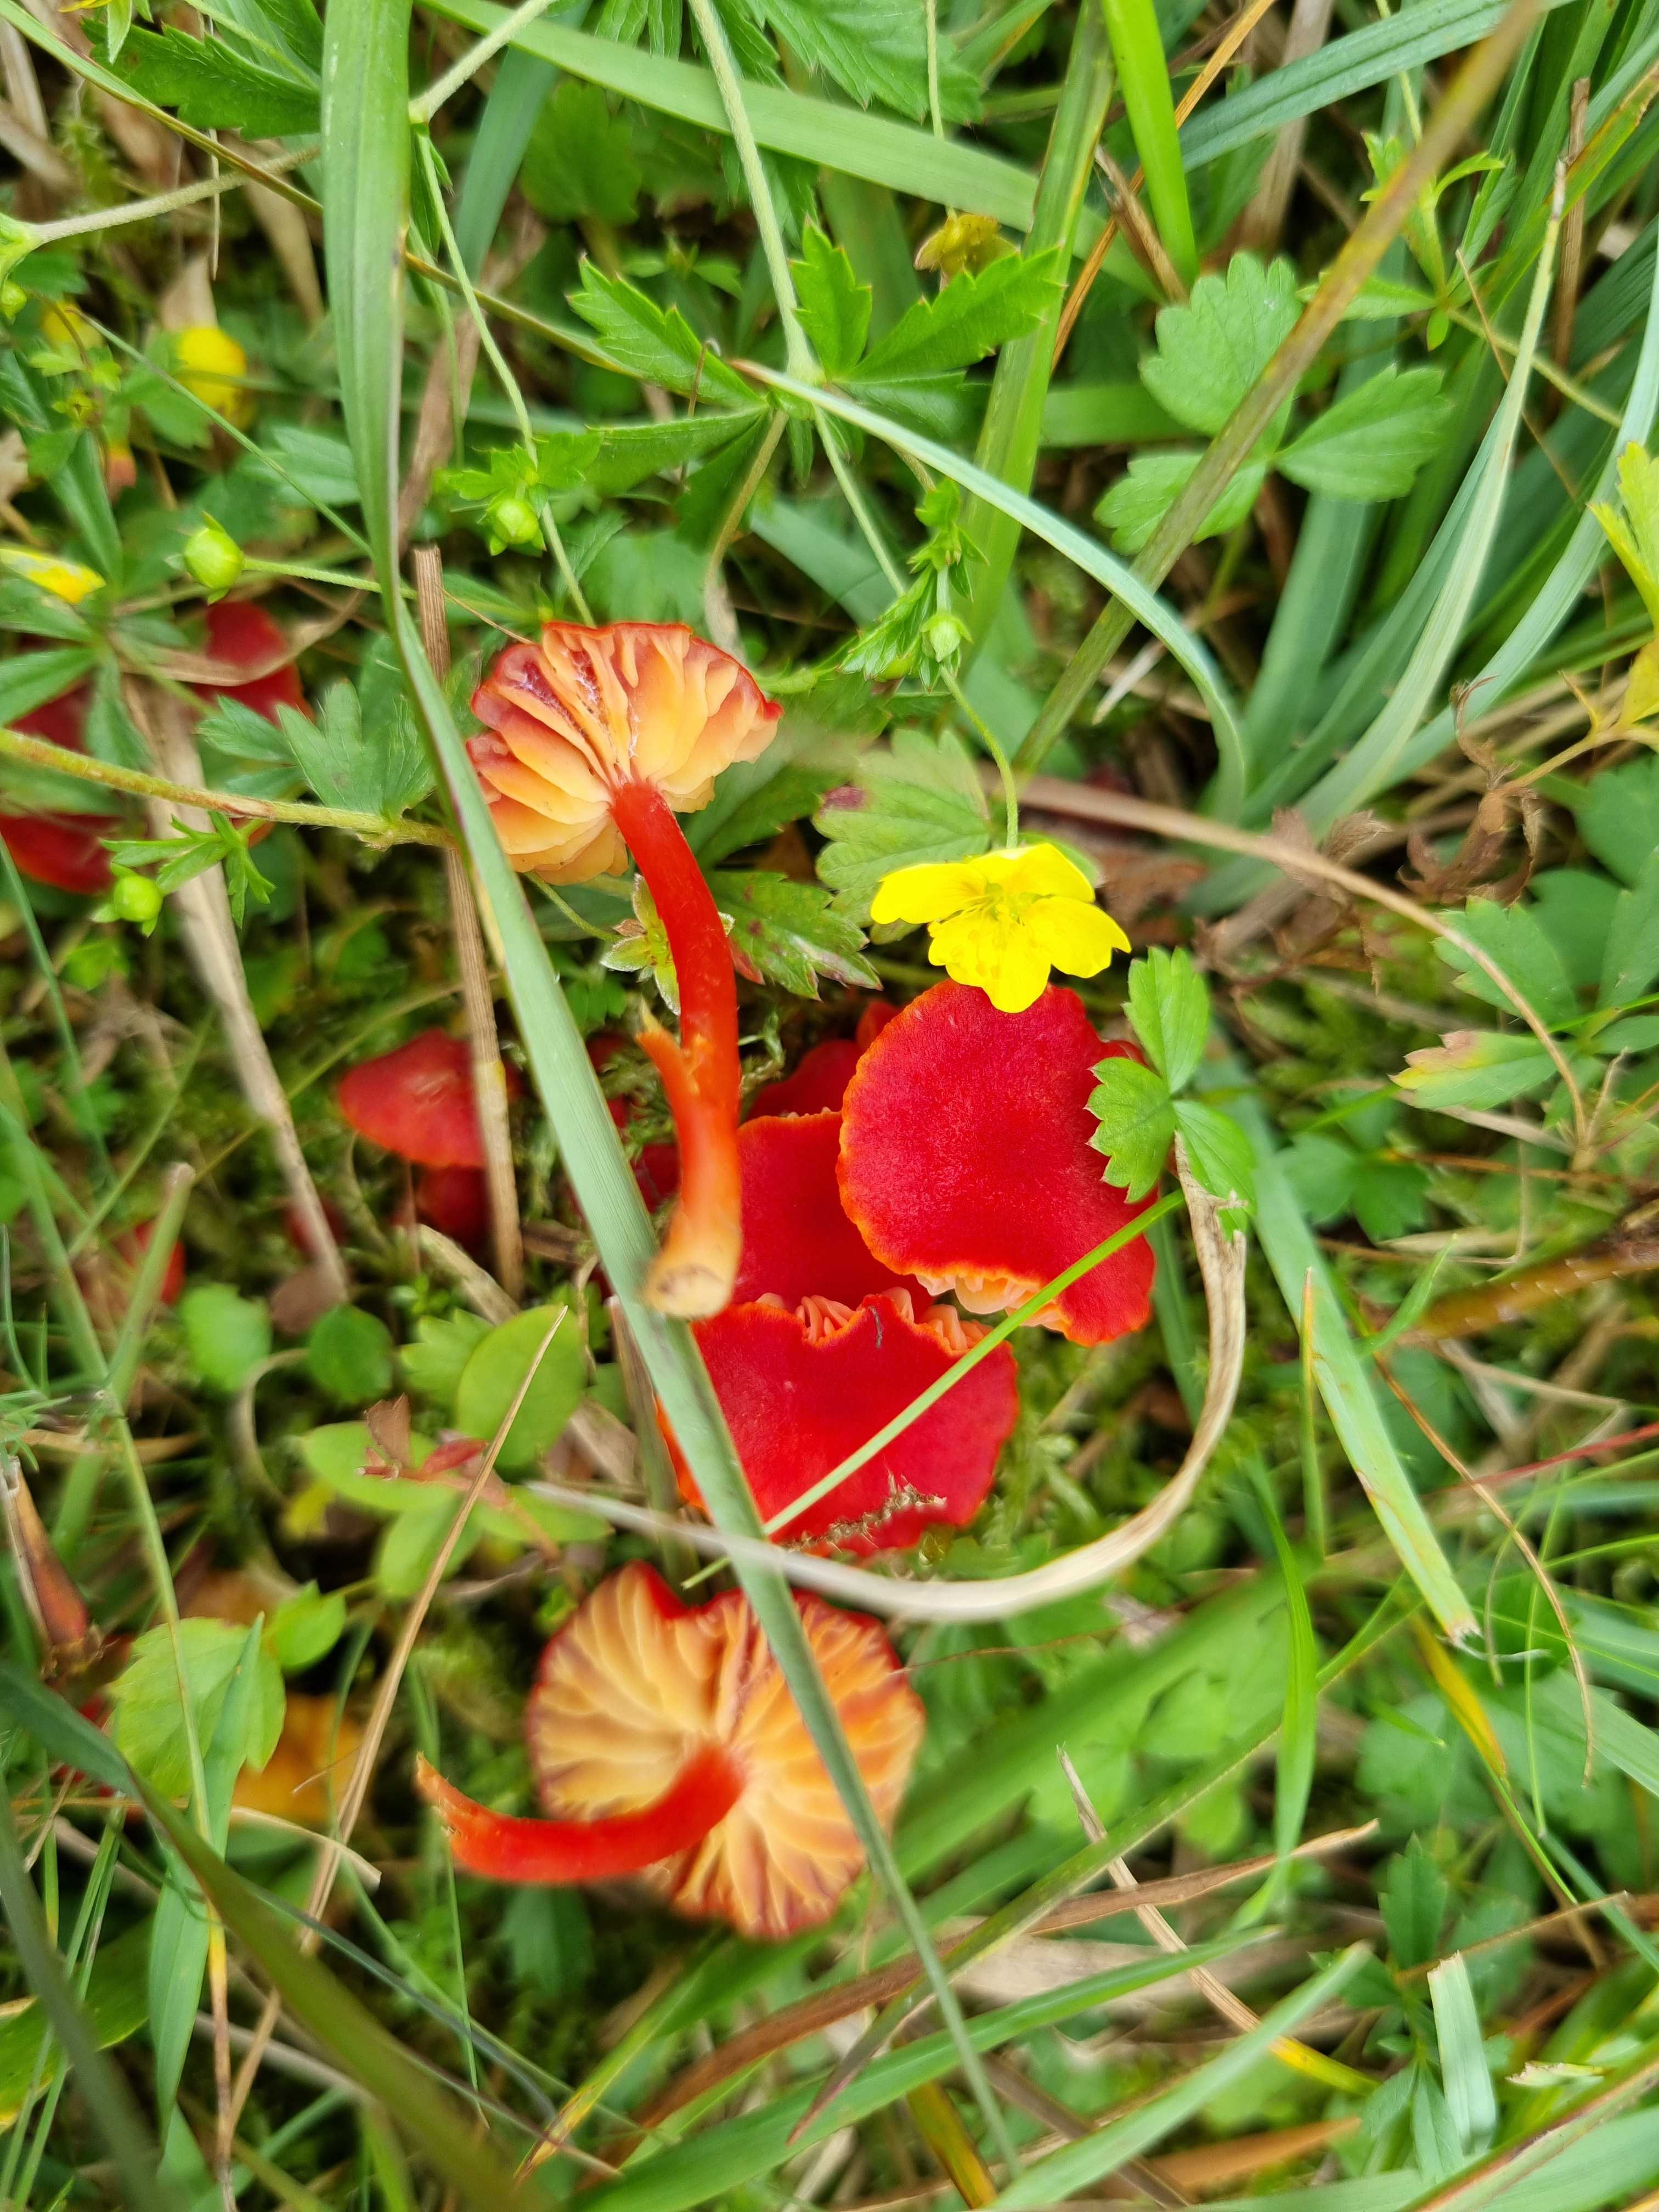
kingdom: Fungi
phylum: Basidiomycota
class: Agaricomycetes
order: Agaricales
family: Hygrophoraceae
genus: Hygrocybe
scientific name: Hygrocybe helobia
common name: hvidløgs-vokshat
